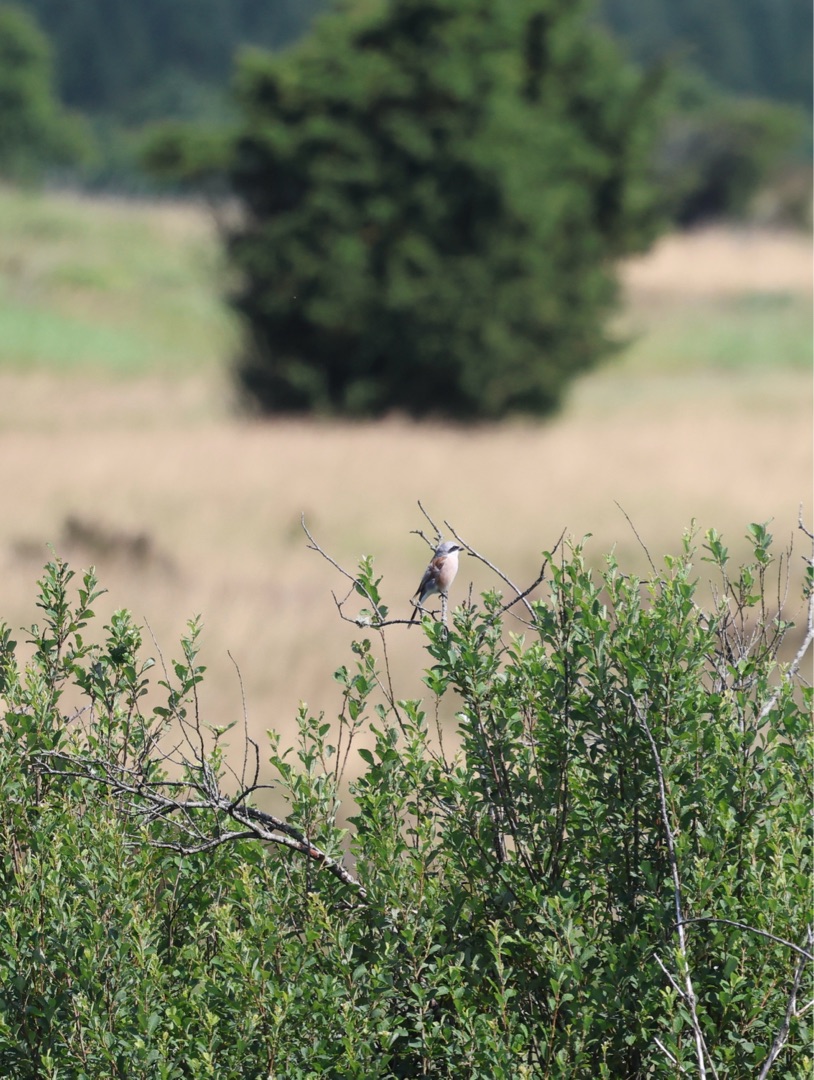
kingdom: Animalia
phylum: Chordata
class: Aves
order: Passeriformes
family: Laniidae
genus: Lanius
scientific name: Lanius collurio
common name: Rødrygget tornskade
